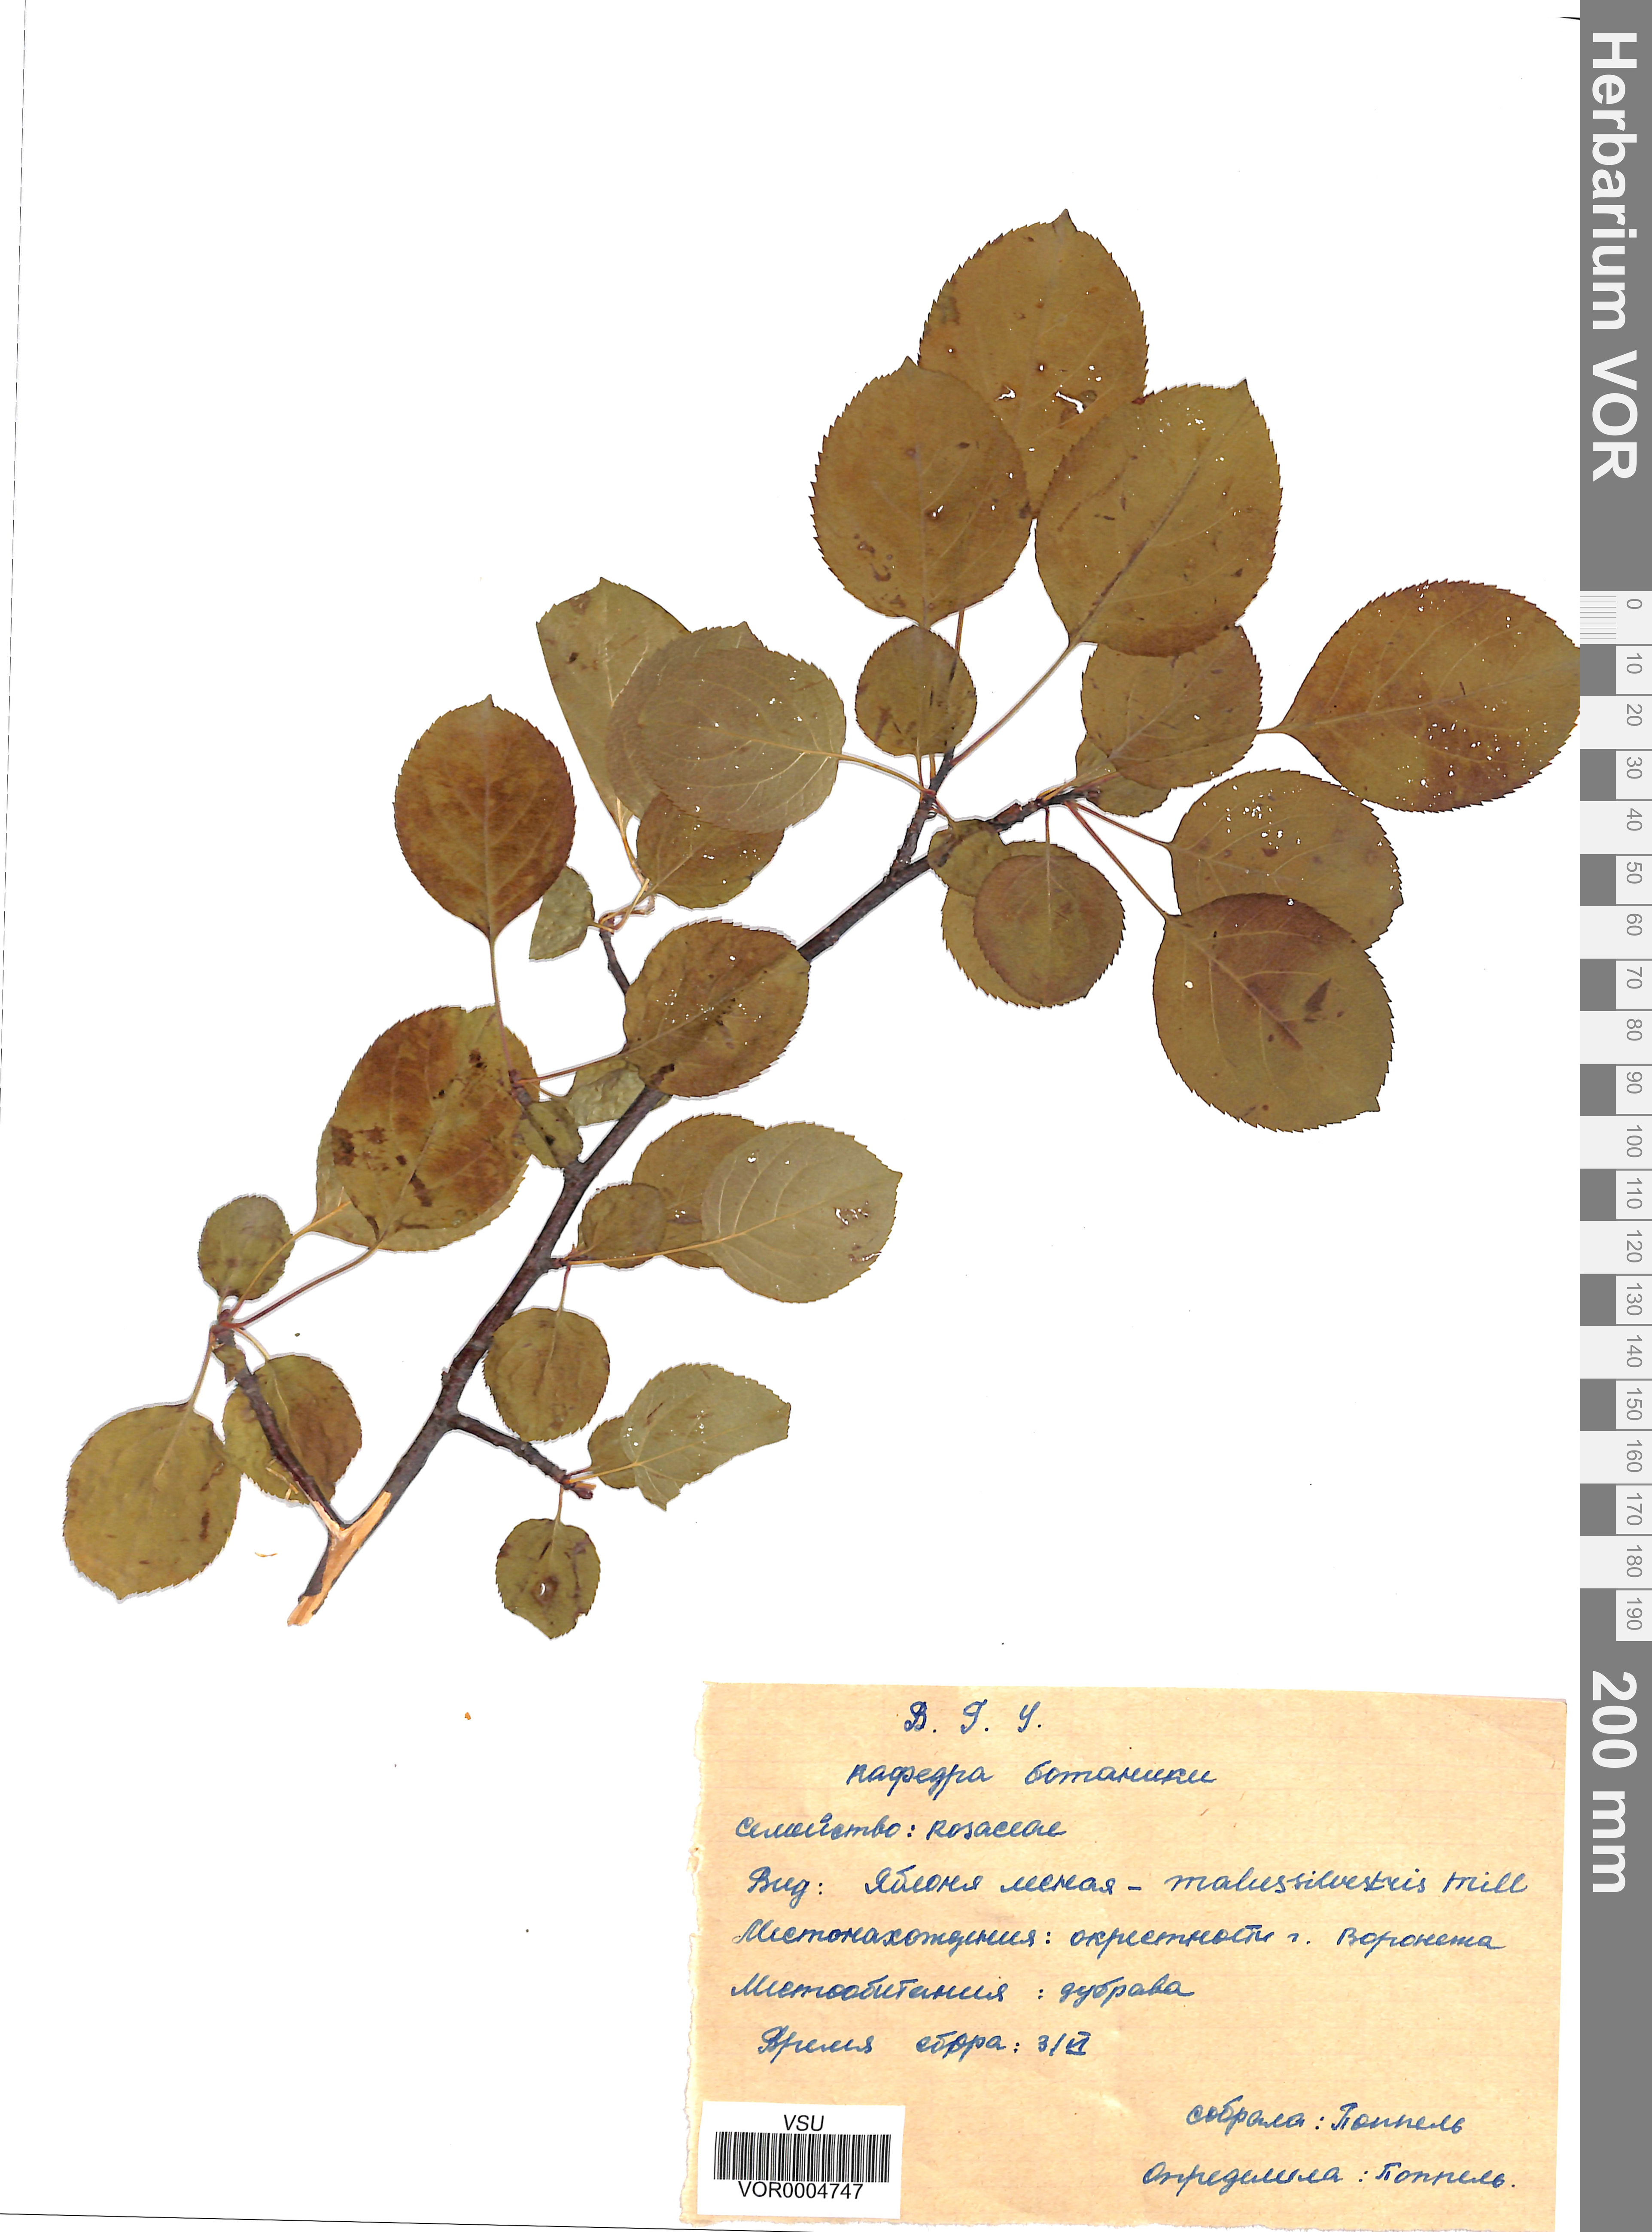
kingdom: Plantae
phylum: Tracheophyta
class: Magnoliopsida
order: Rosales
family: Rosaceae
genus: Malus
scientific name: Malus domestica
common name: Apple
